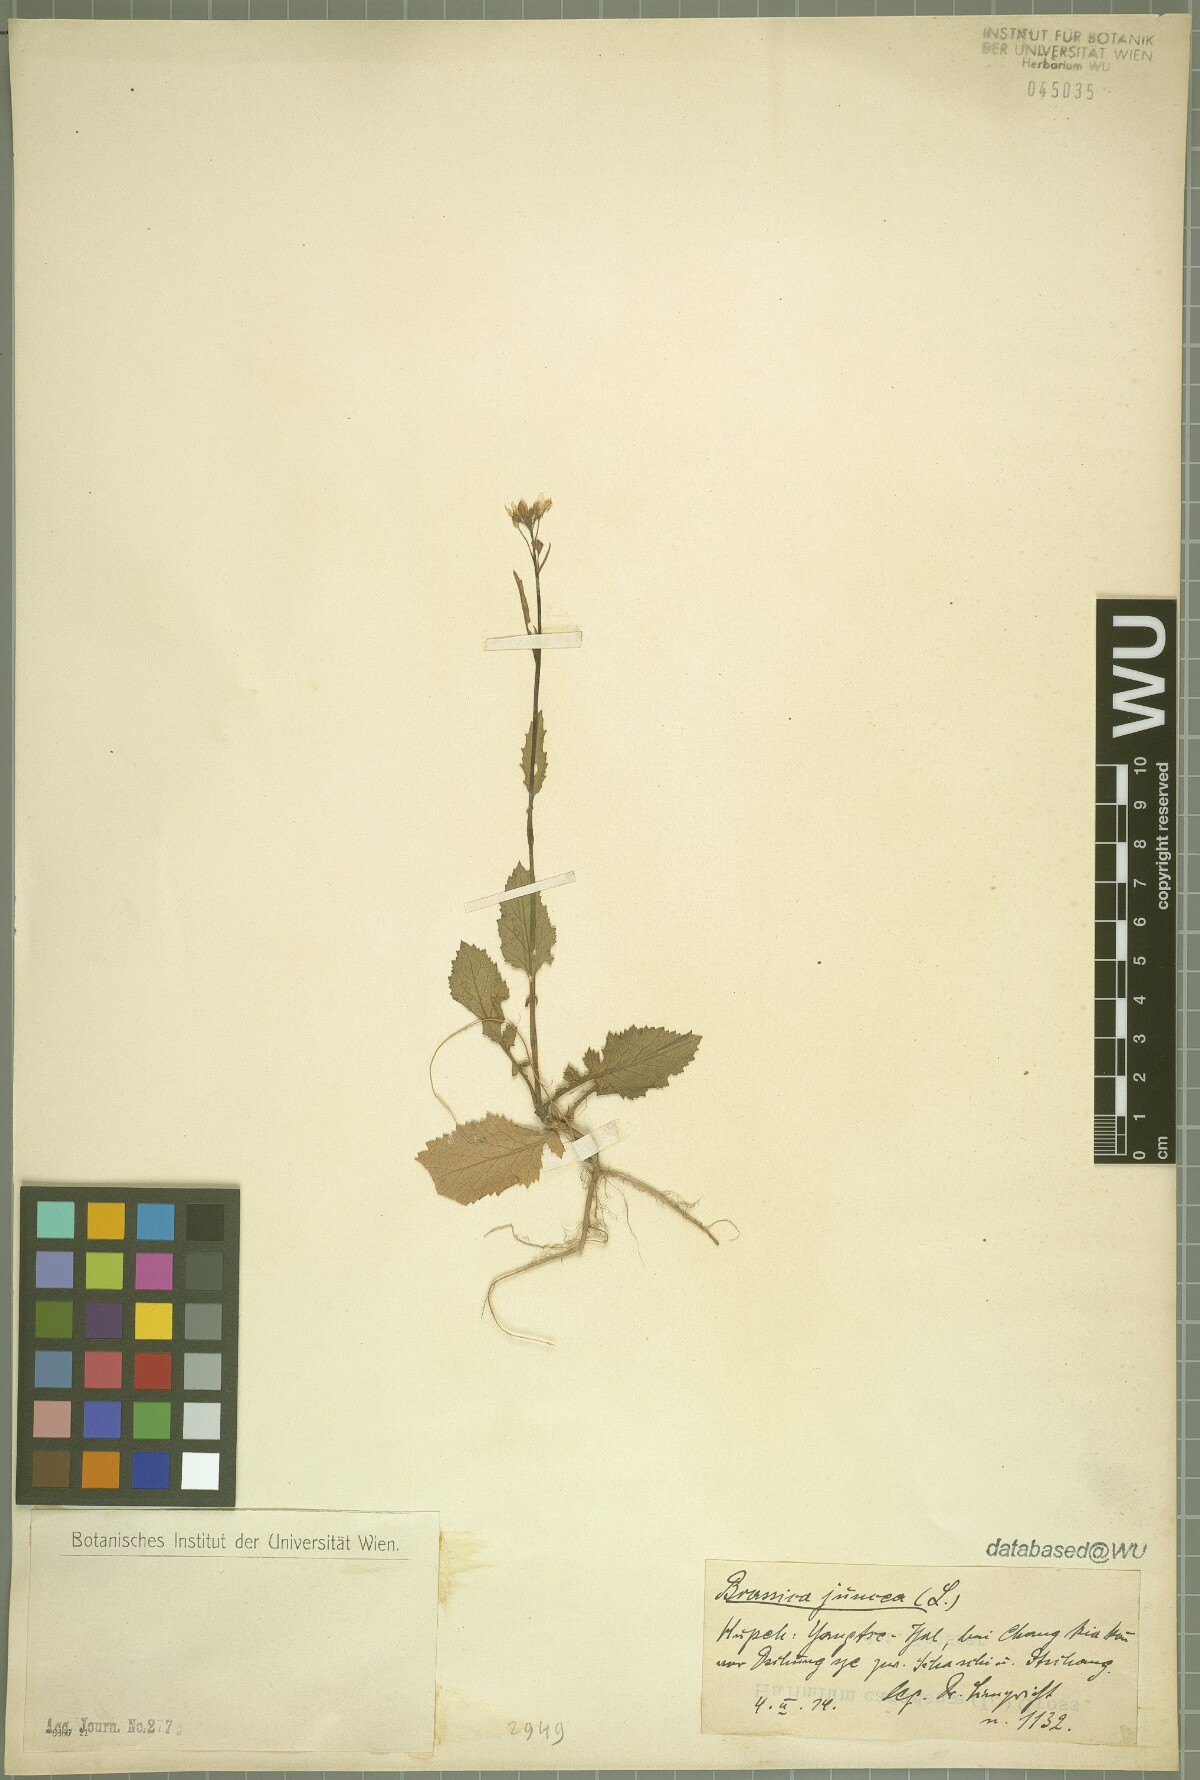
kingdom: Plantae
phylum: Tracheophyta
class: Magnoliopsida
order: Brassicales
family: Brassicaceae
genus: Brassica
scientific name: Brassica juncea
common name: Brown mustard
